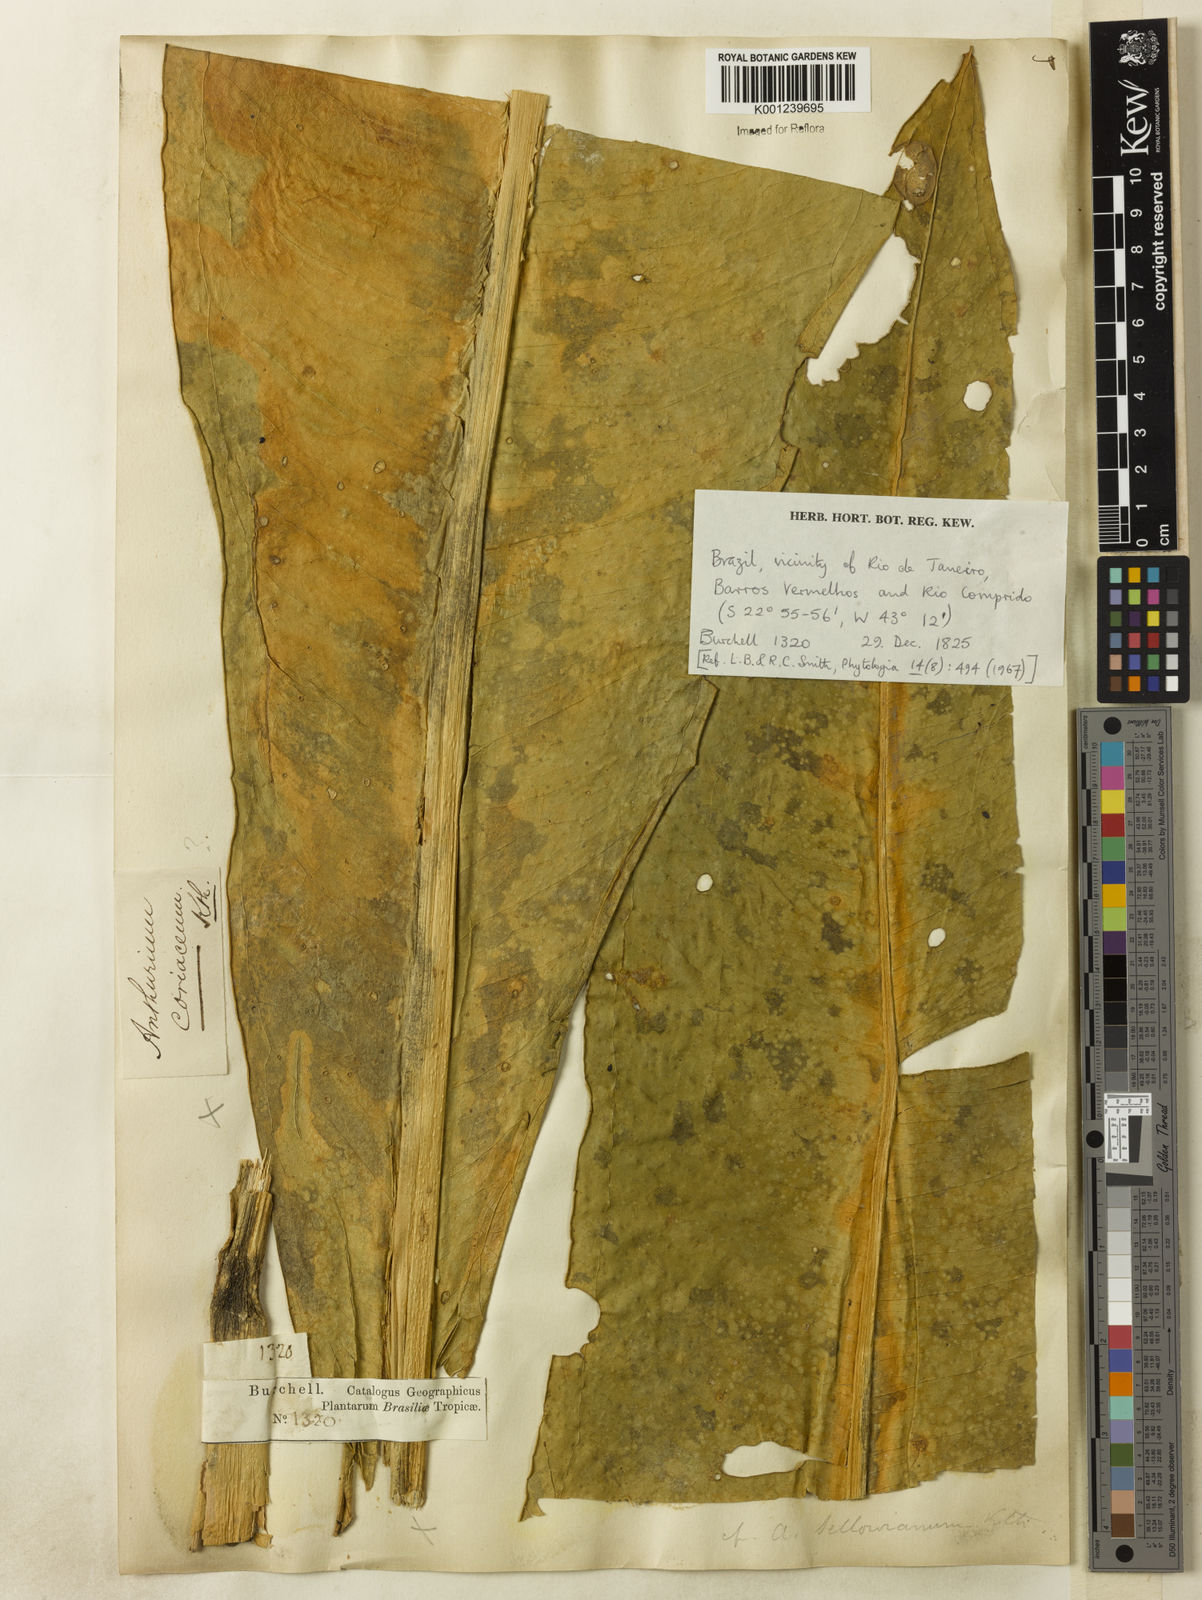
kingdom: Plantae
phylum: Tracheophyta
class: Liliopsida
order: Alismatales
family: Araceae
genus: Anthurium
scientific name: Anthurium sellowianum
